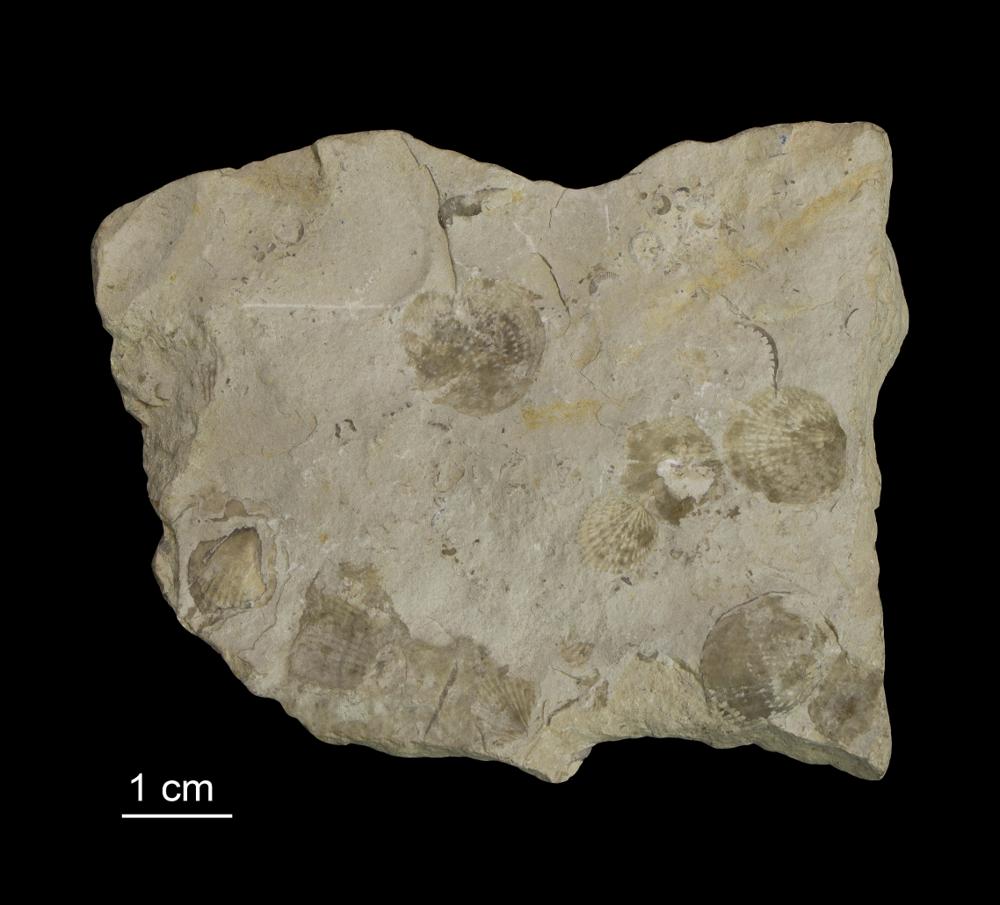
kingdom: Animalia
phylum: Brachiopoda
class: Rhynchonellata
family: Atrypidae
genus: Atrypa
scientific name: Atrypa reticularis
